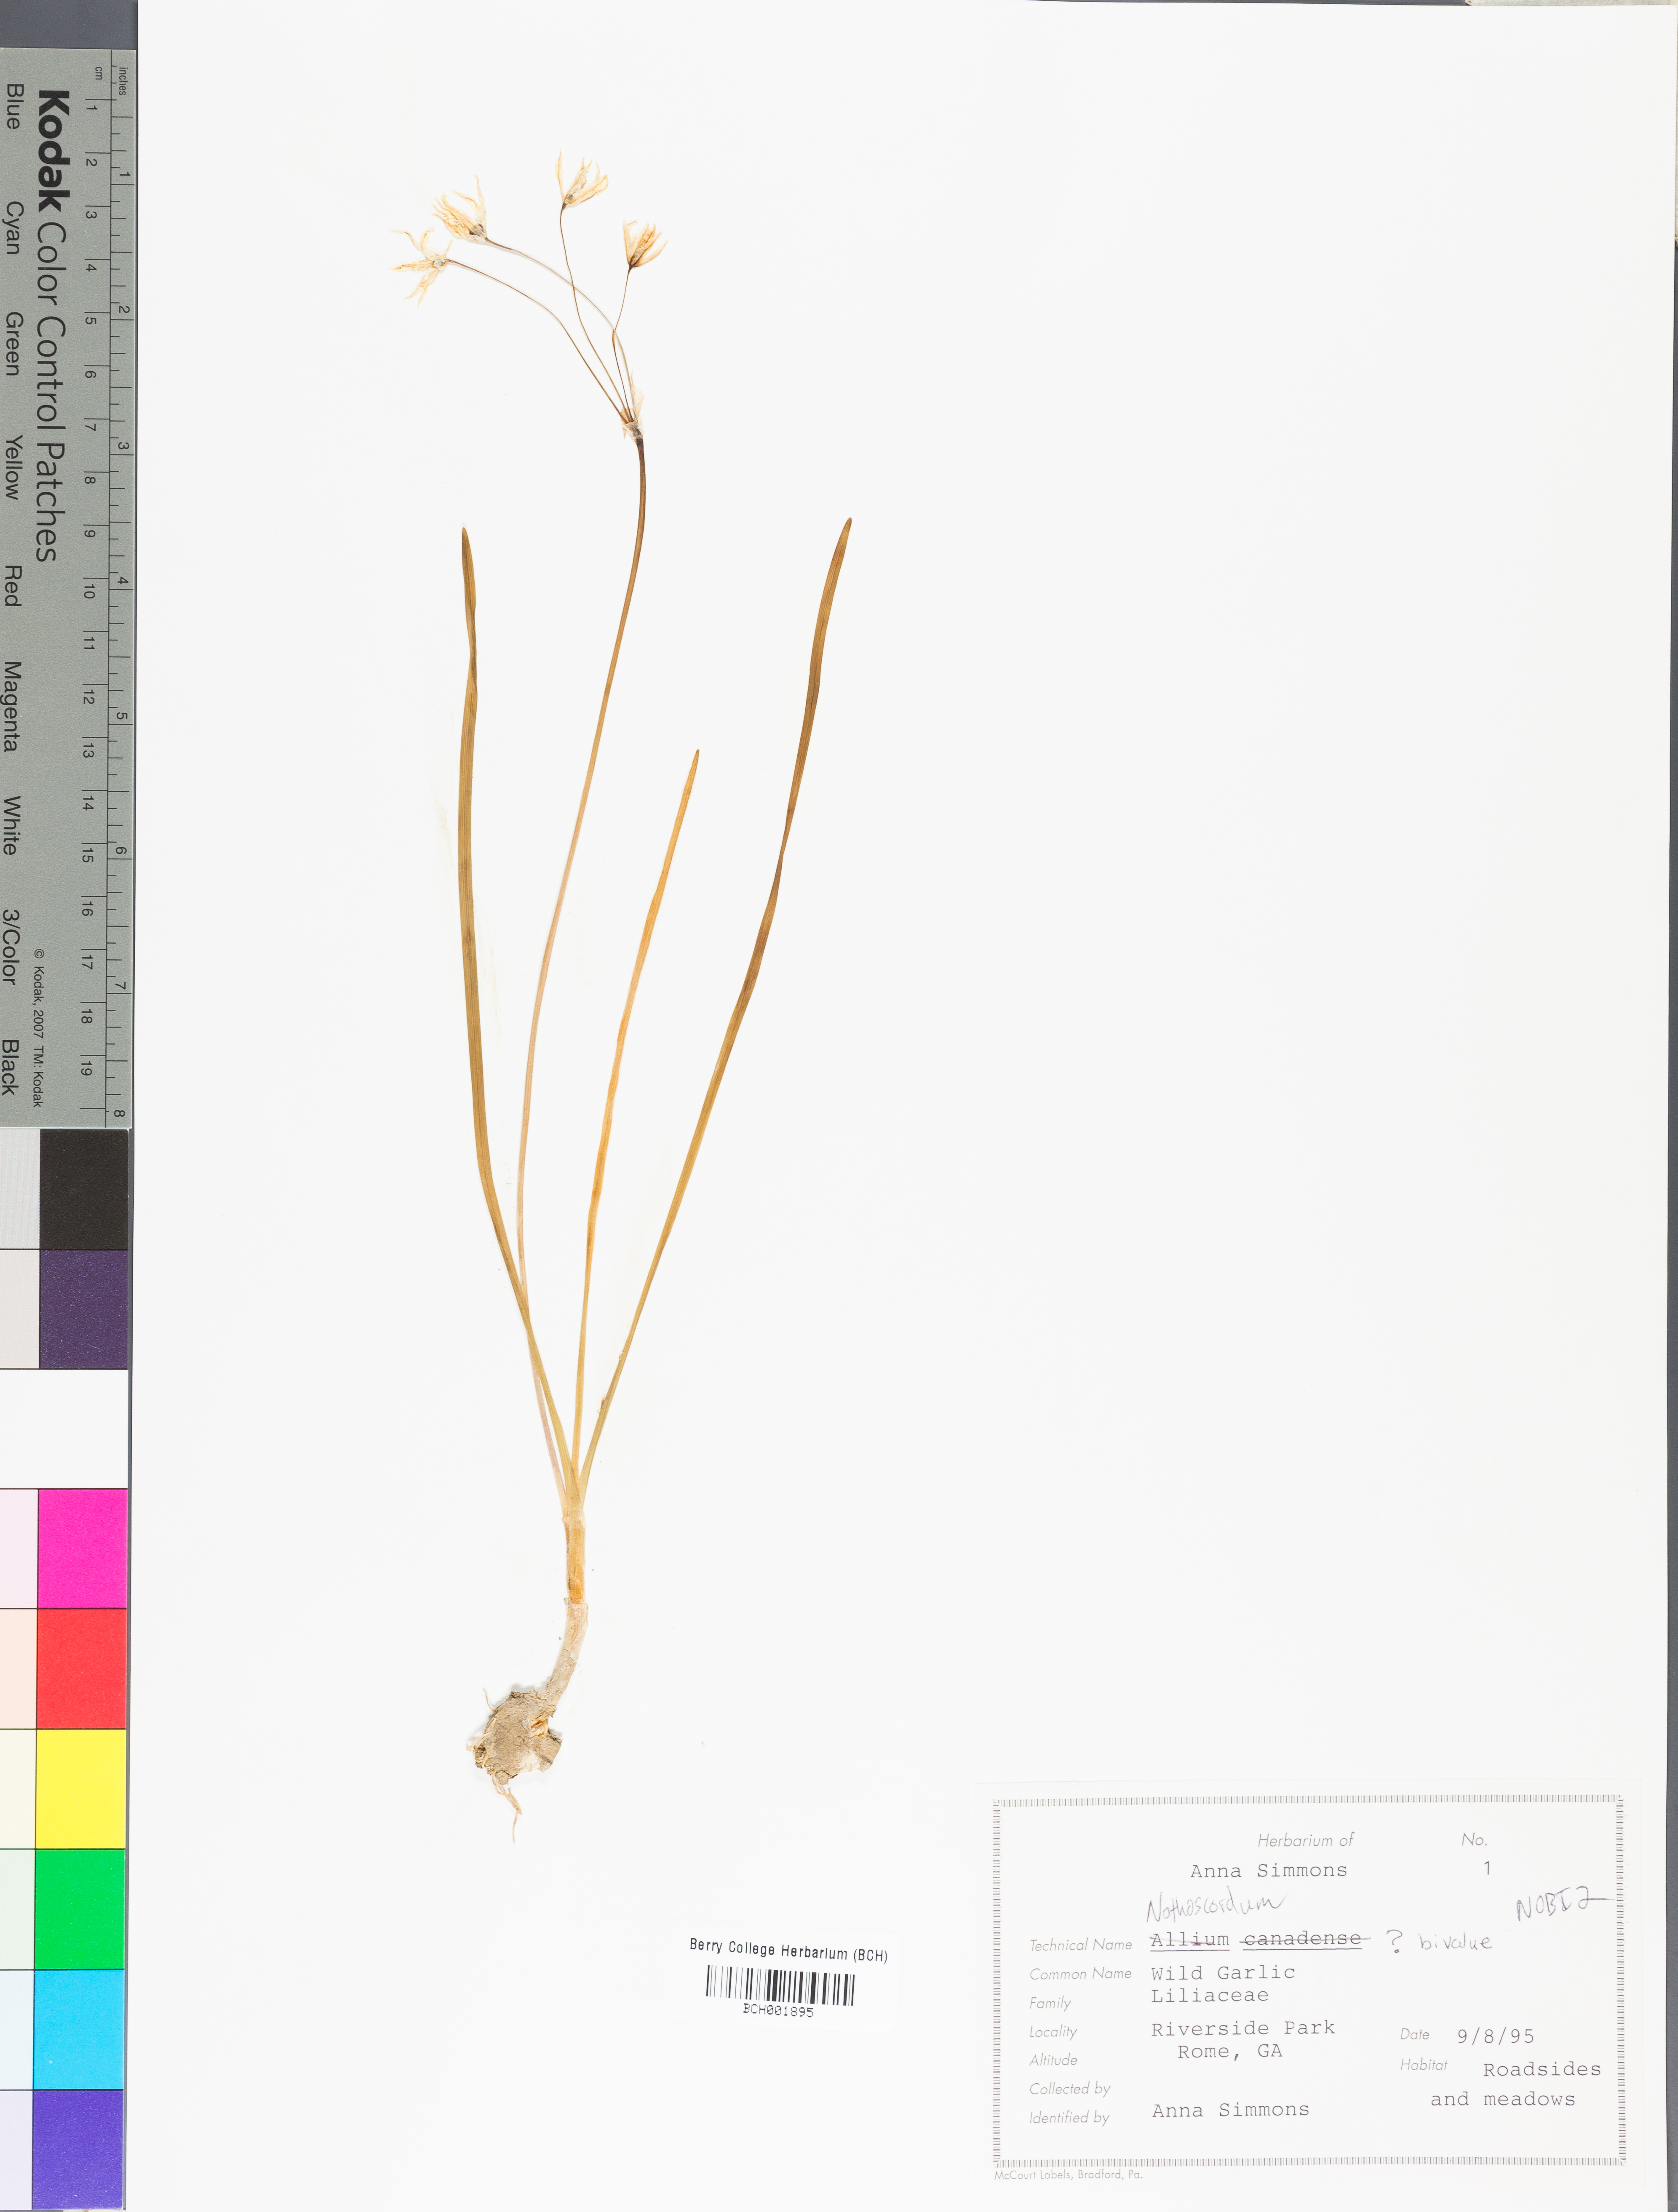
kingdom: Plantae
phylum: Tracheophyta
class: Liliopsida
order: Asparagales
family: Amaryllidaceae
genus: Nothoscordum
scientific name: Nothoscordum bivalve
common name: Crow-poison
